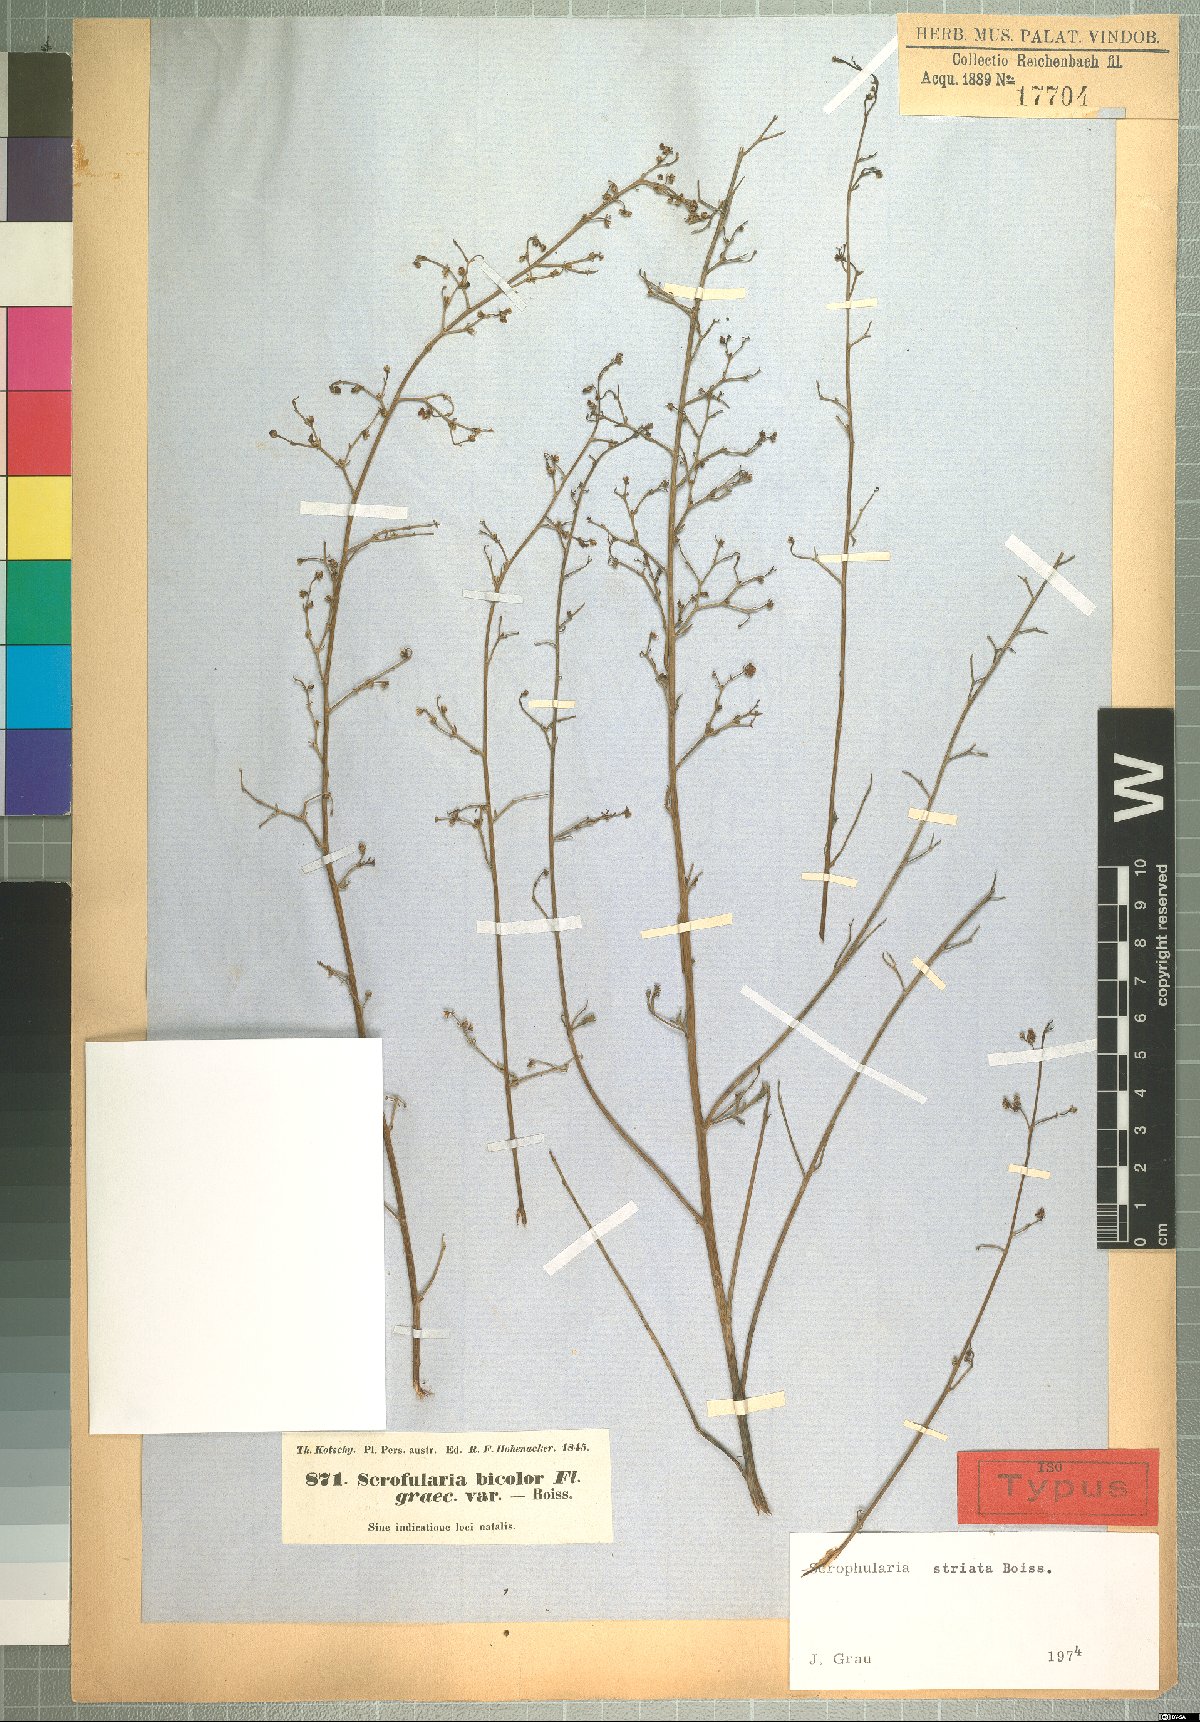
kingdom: Plantae
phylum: Tracheophyta
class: Magnoliopsida
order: Lamiales
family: Scrophulariaceae
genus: Scrophularia
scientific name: Scrophularia striata
